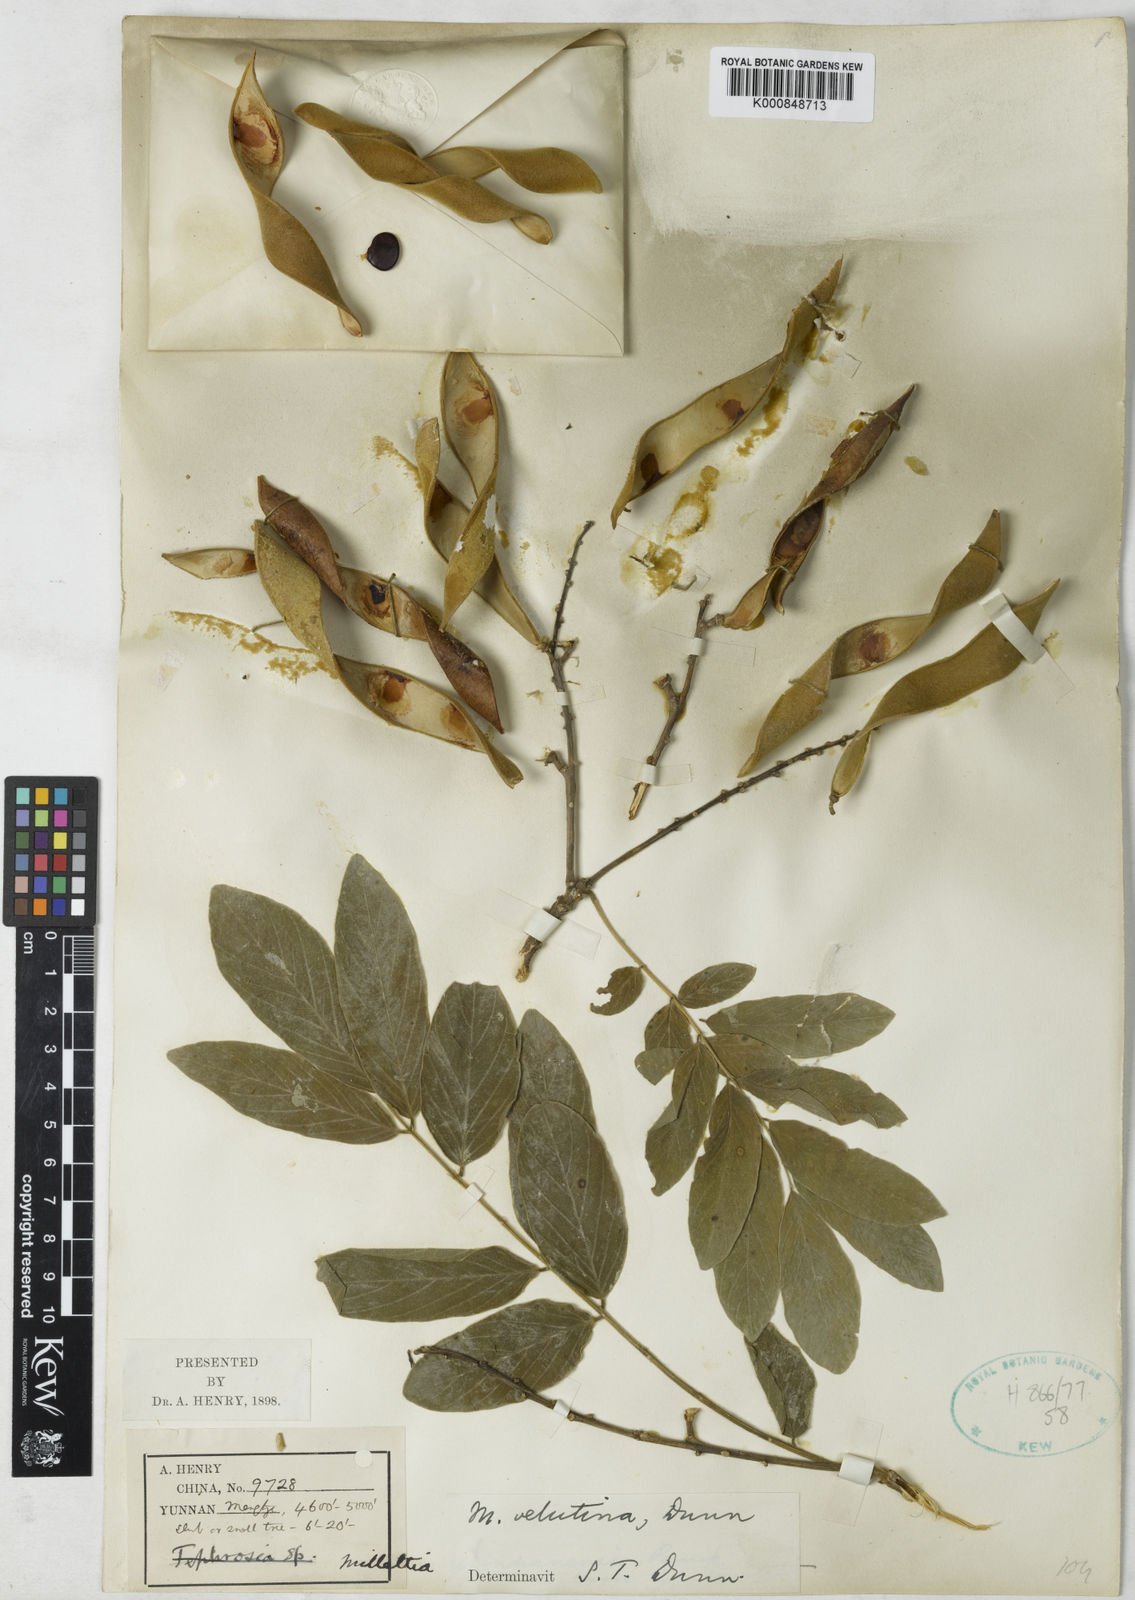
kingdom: Plantae
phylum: Tracheophyta
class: Magnoliopsida
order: Fabales
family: Fabaceae
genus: Millettia
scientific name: Millettia velutina
